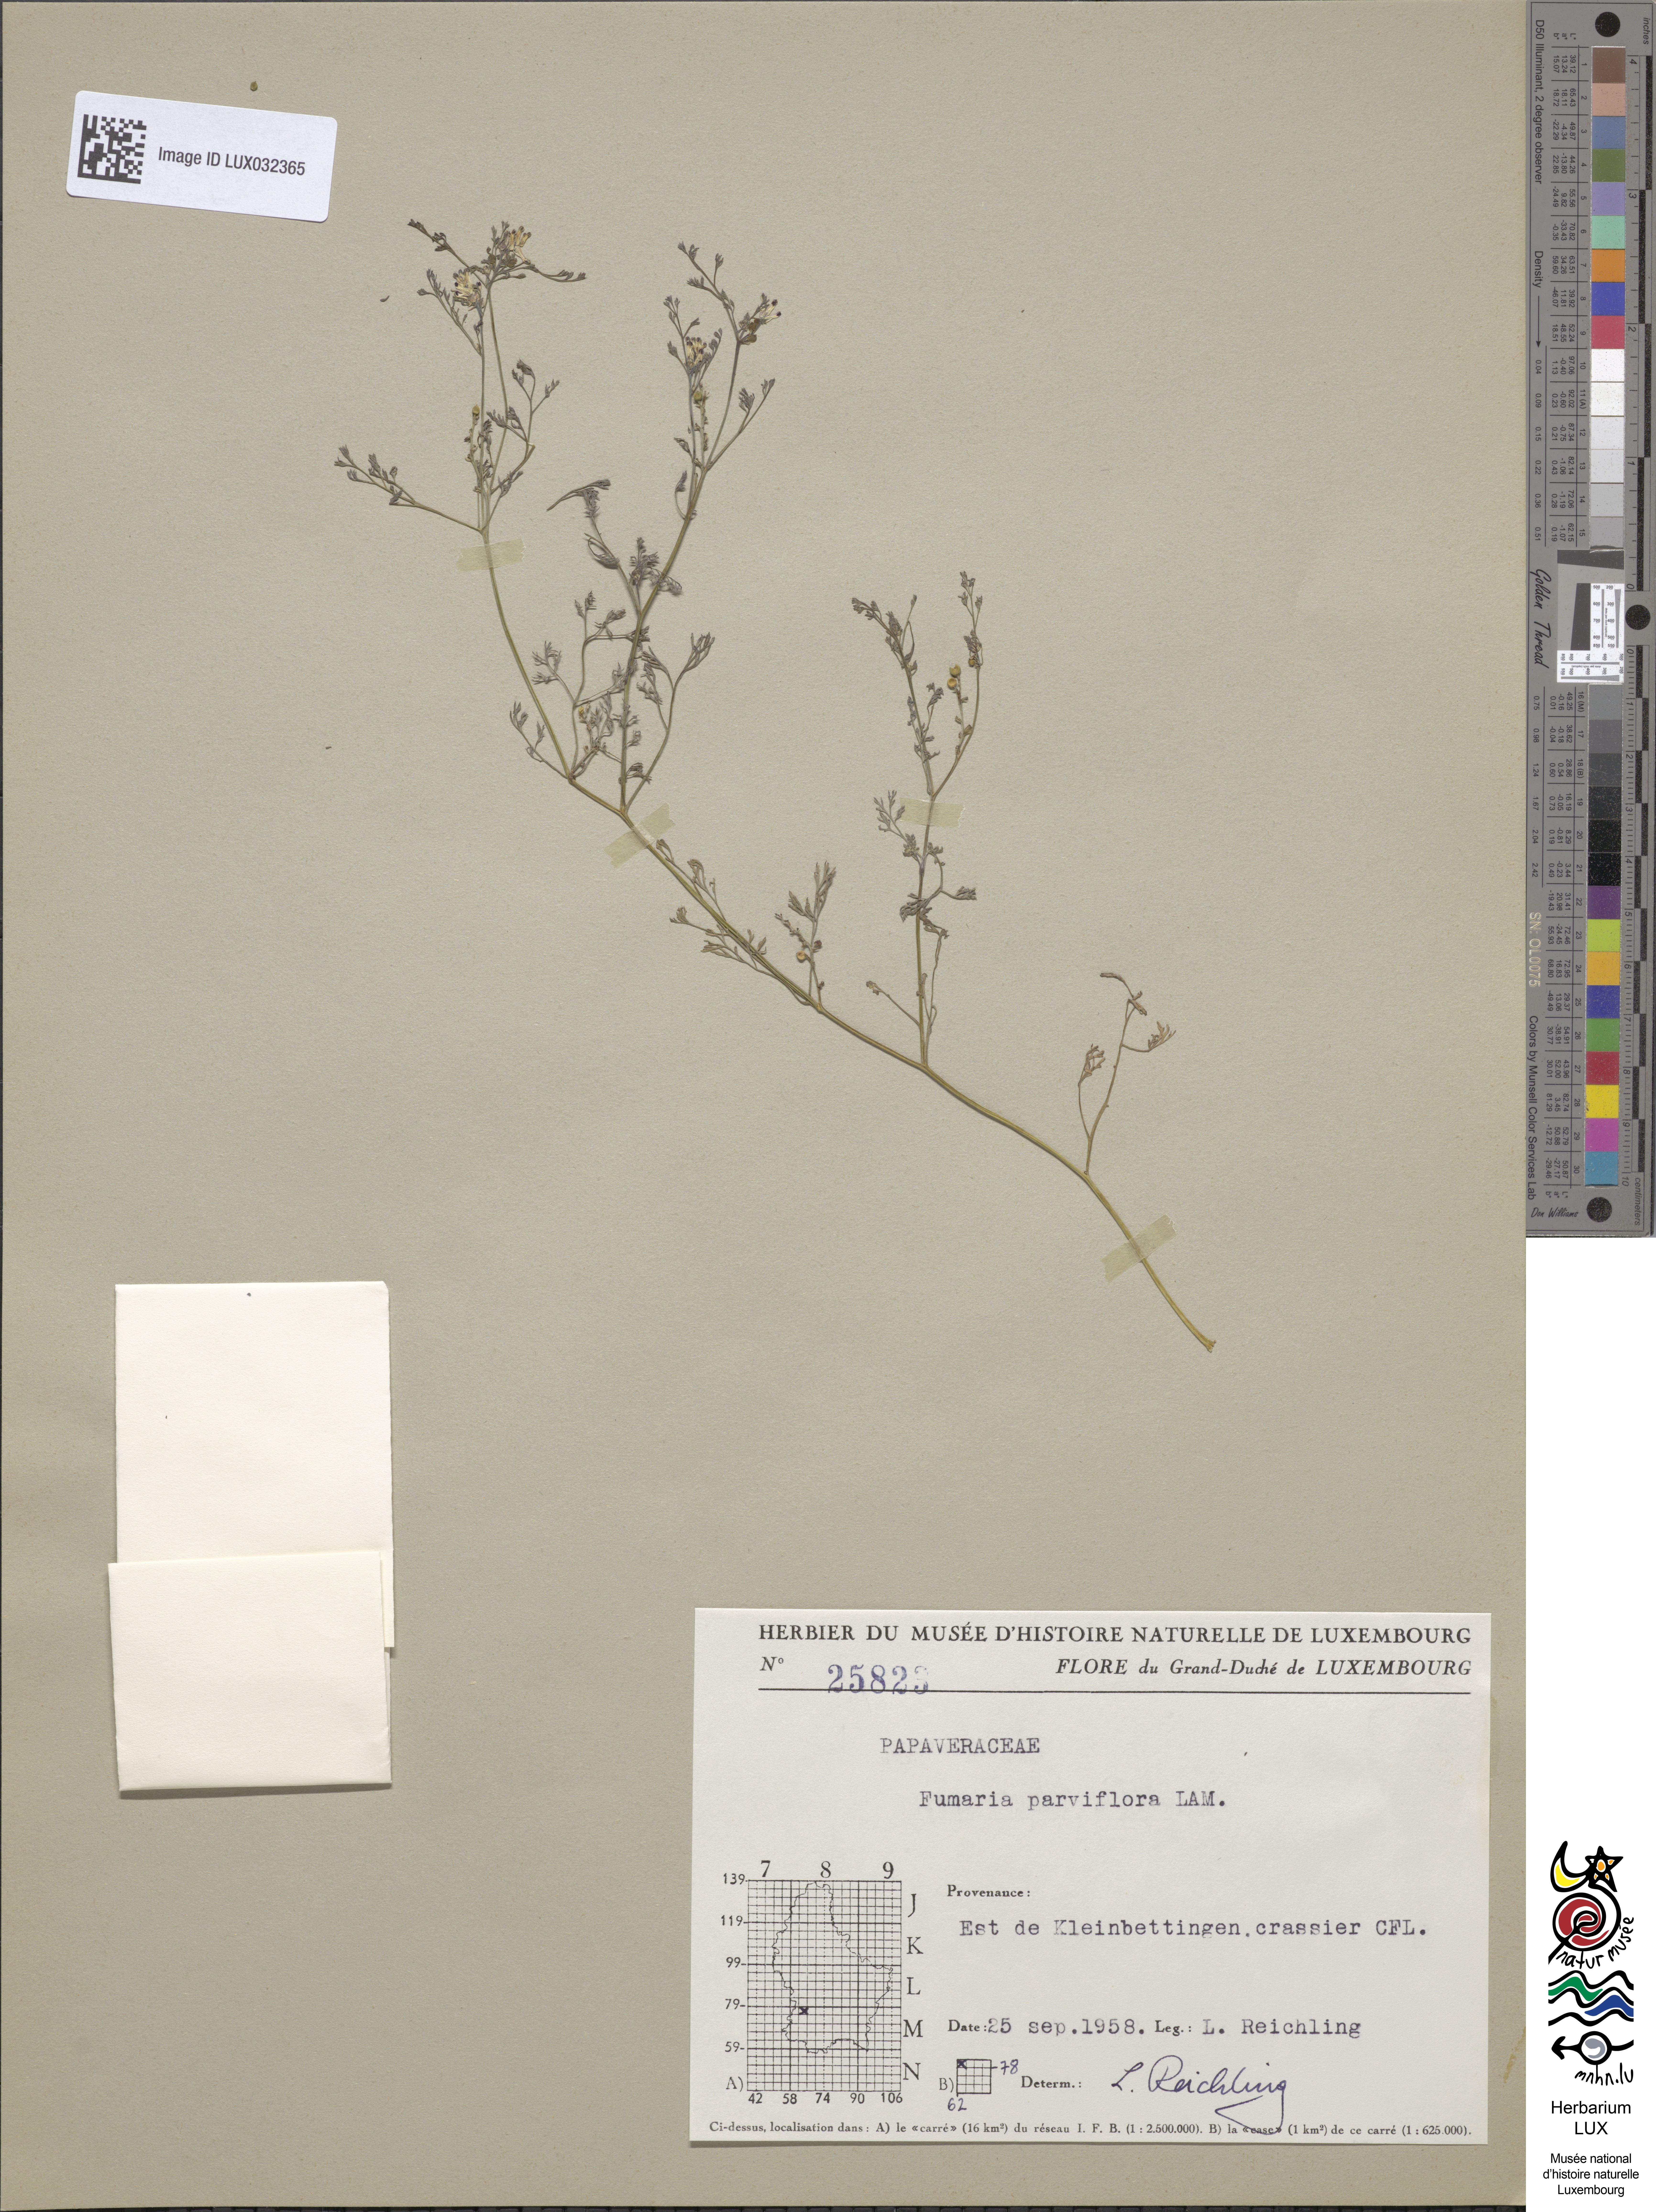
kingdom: Plantae
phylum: Tracheophyta
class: Magnoliopsida
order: Ranunculales
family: Papaveraceae
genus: Fumaria
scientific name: Fumaria parviflora
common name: Fine-leaved fumitory
